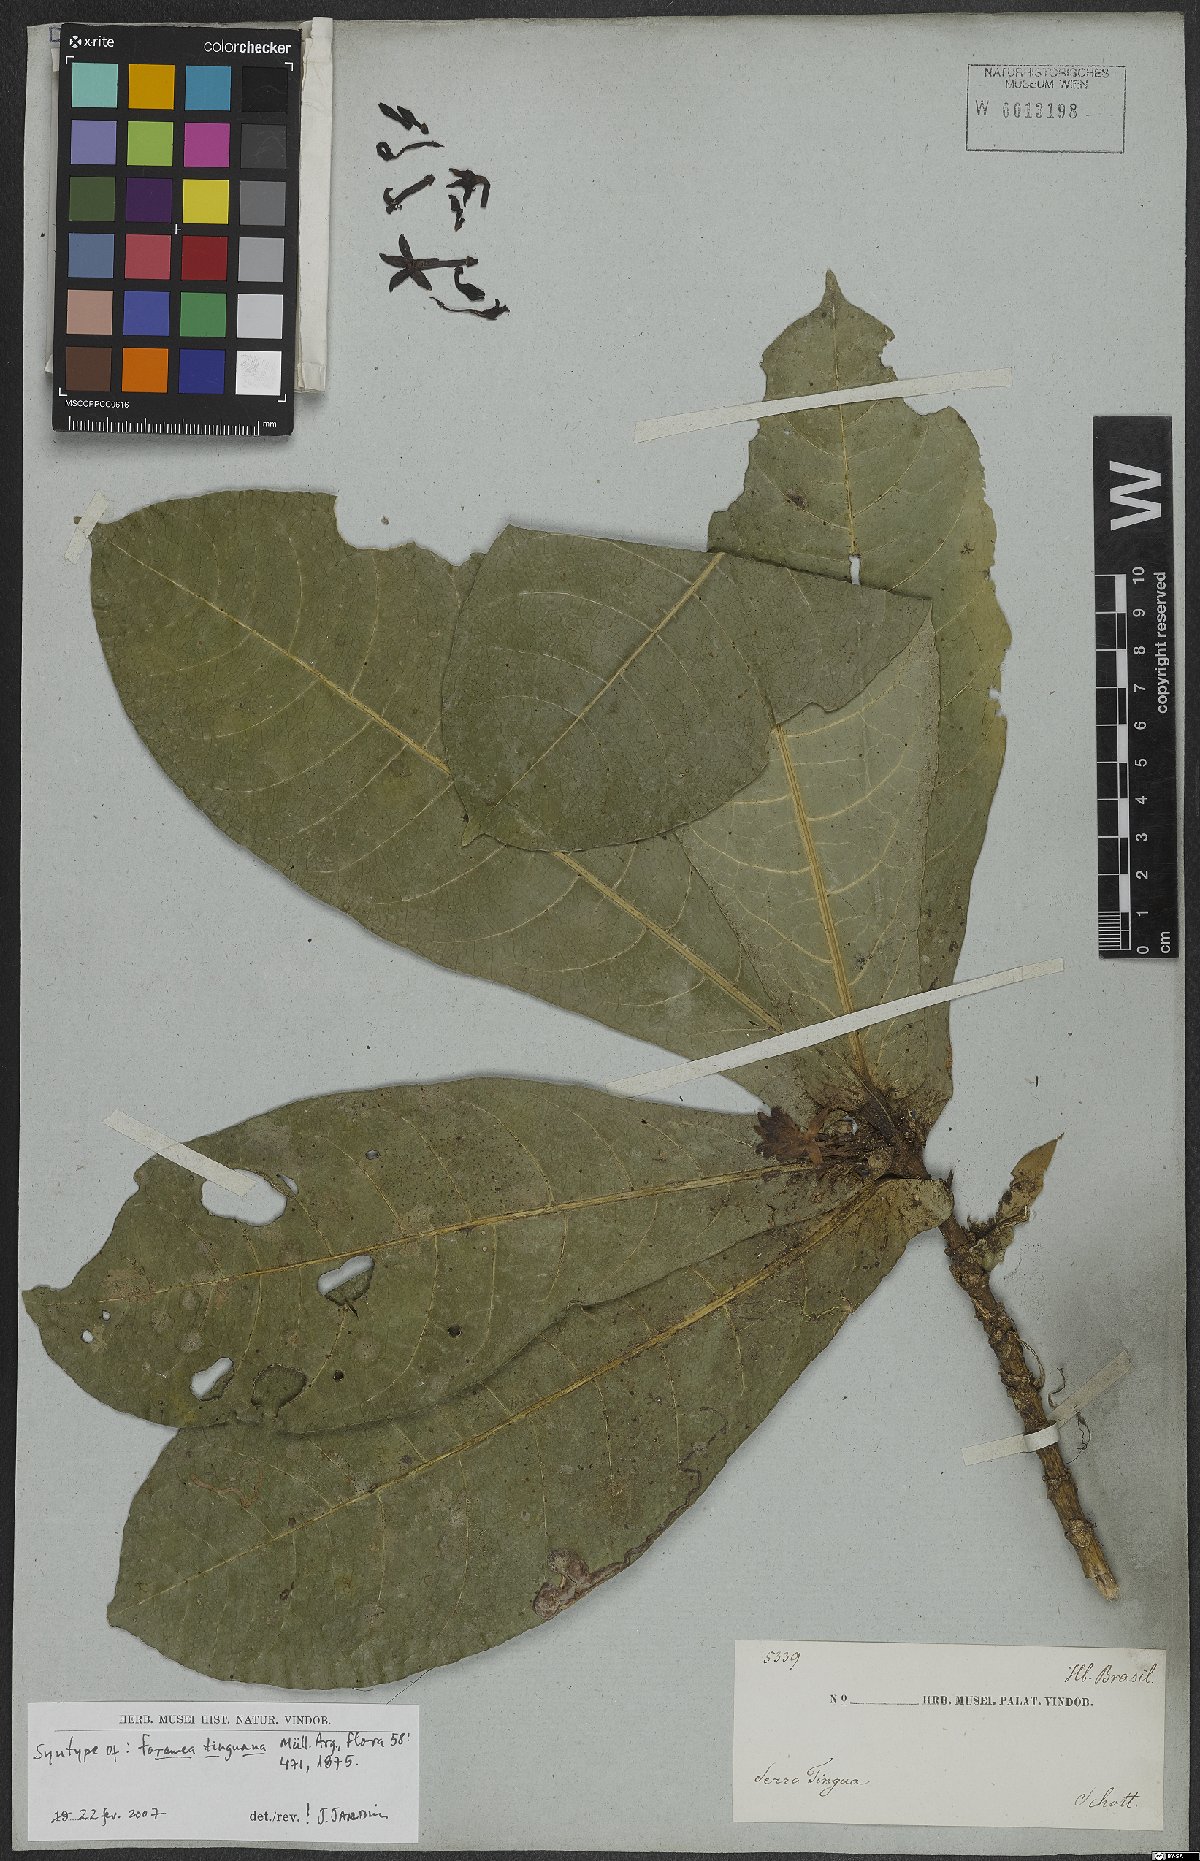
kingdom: Plantae
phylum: Tracheophyta
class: Magnoliopsida
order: Gentianales
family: Rubiaceae
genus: Faramea
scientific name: Faramea tinguana
